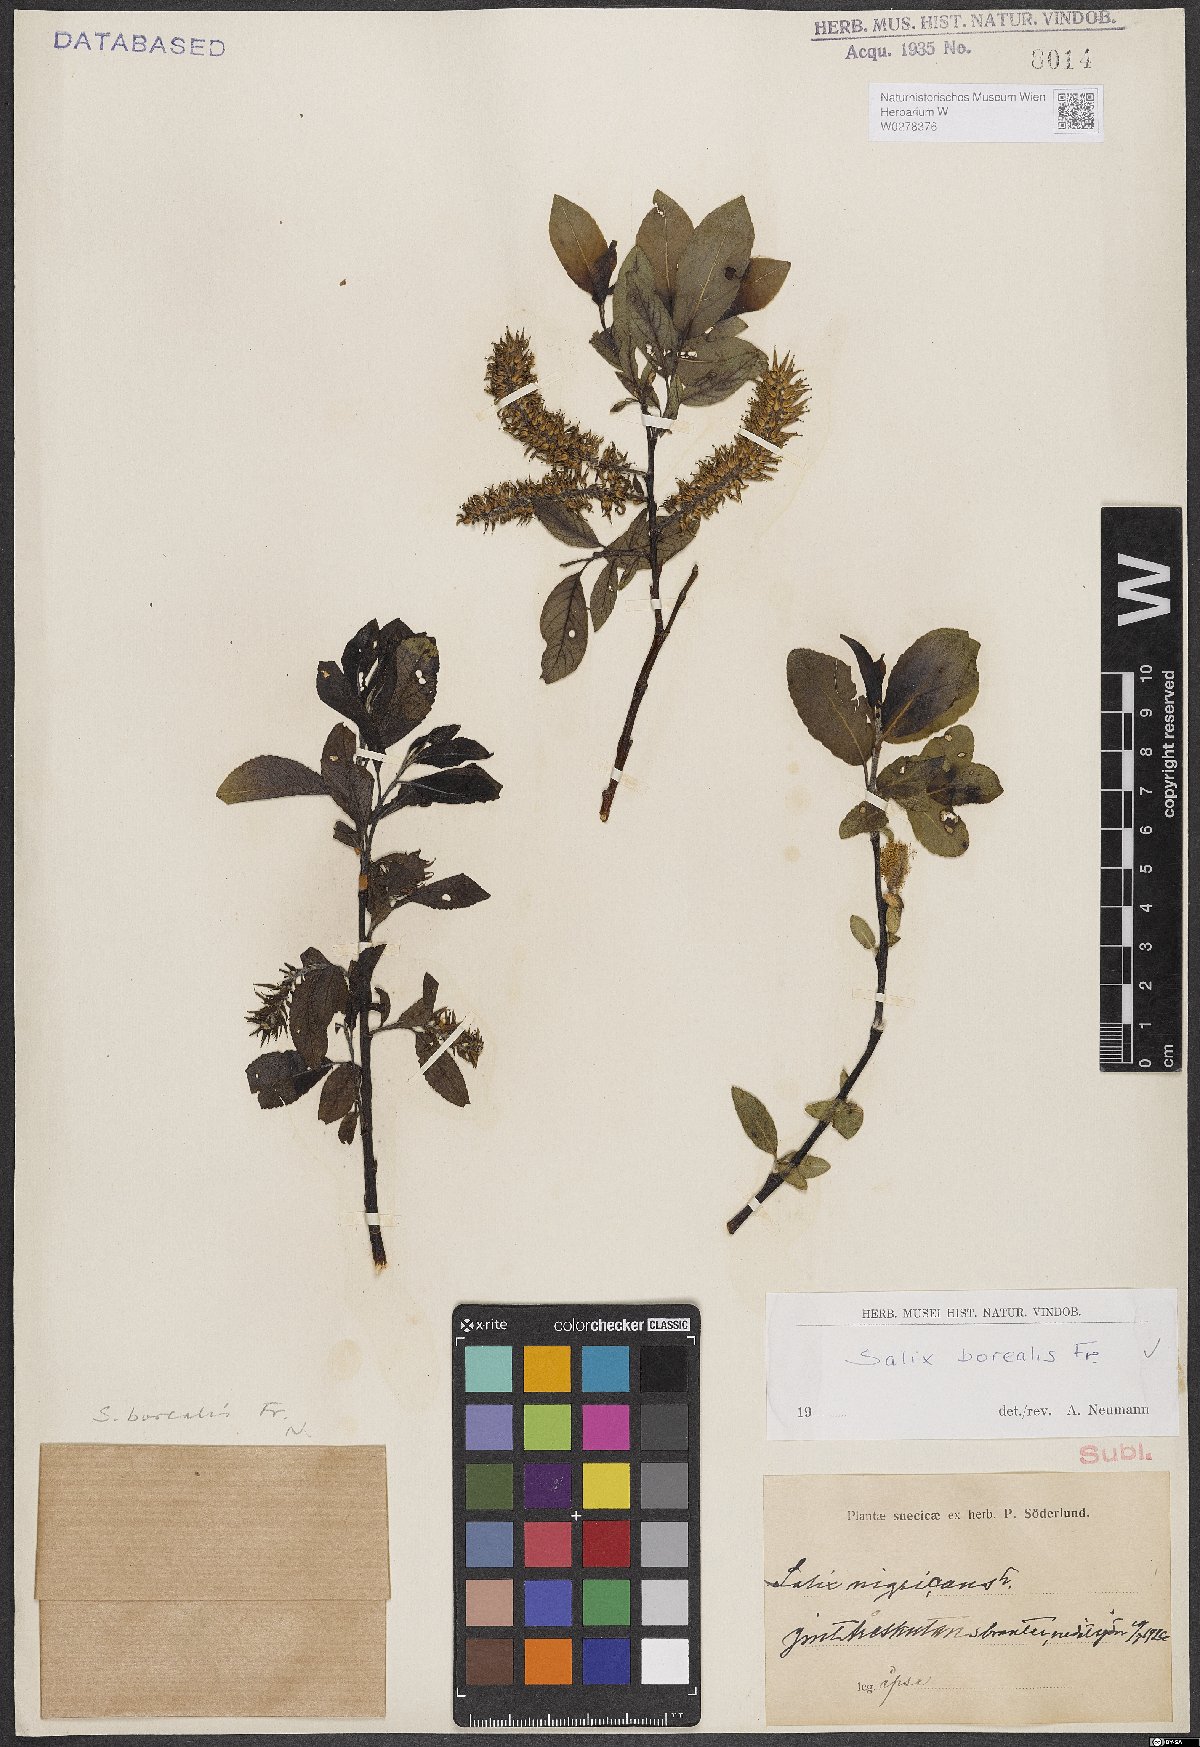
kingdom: Plantae
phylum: Tracheophyta
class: Magnoliopsida
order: Malpighiales
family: Salicaceae
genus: Salix
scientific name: Salix myrsinifolia
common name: Dark-leaved willow
